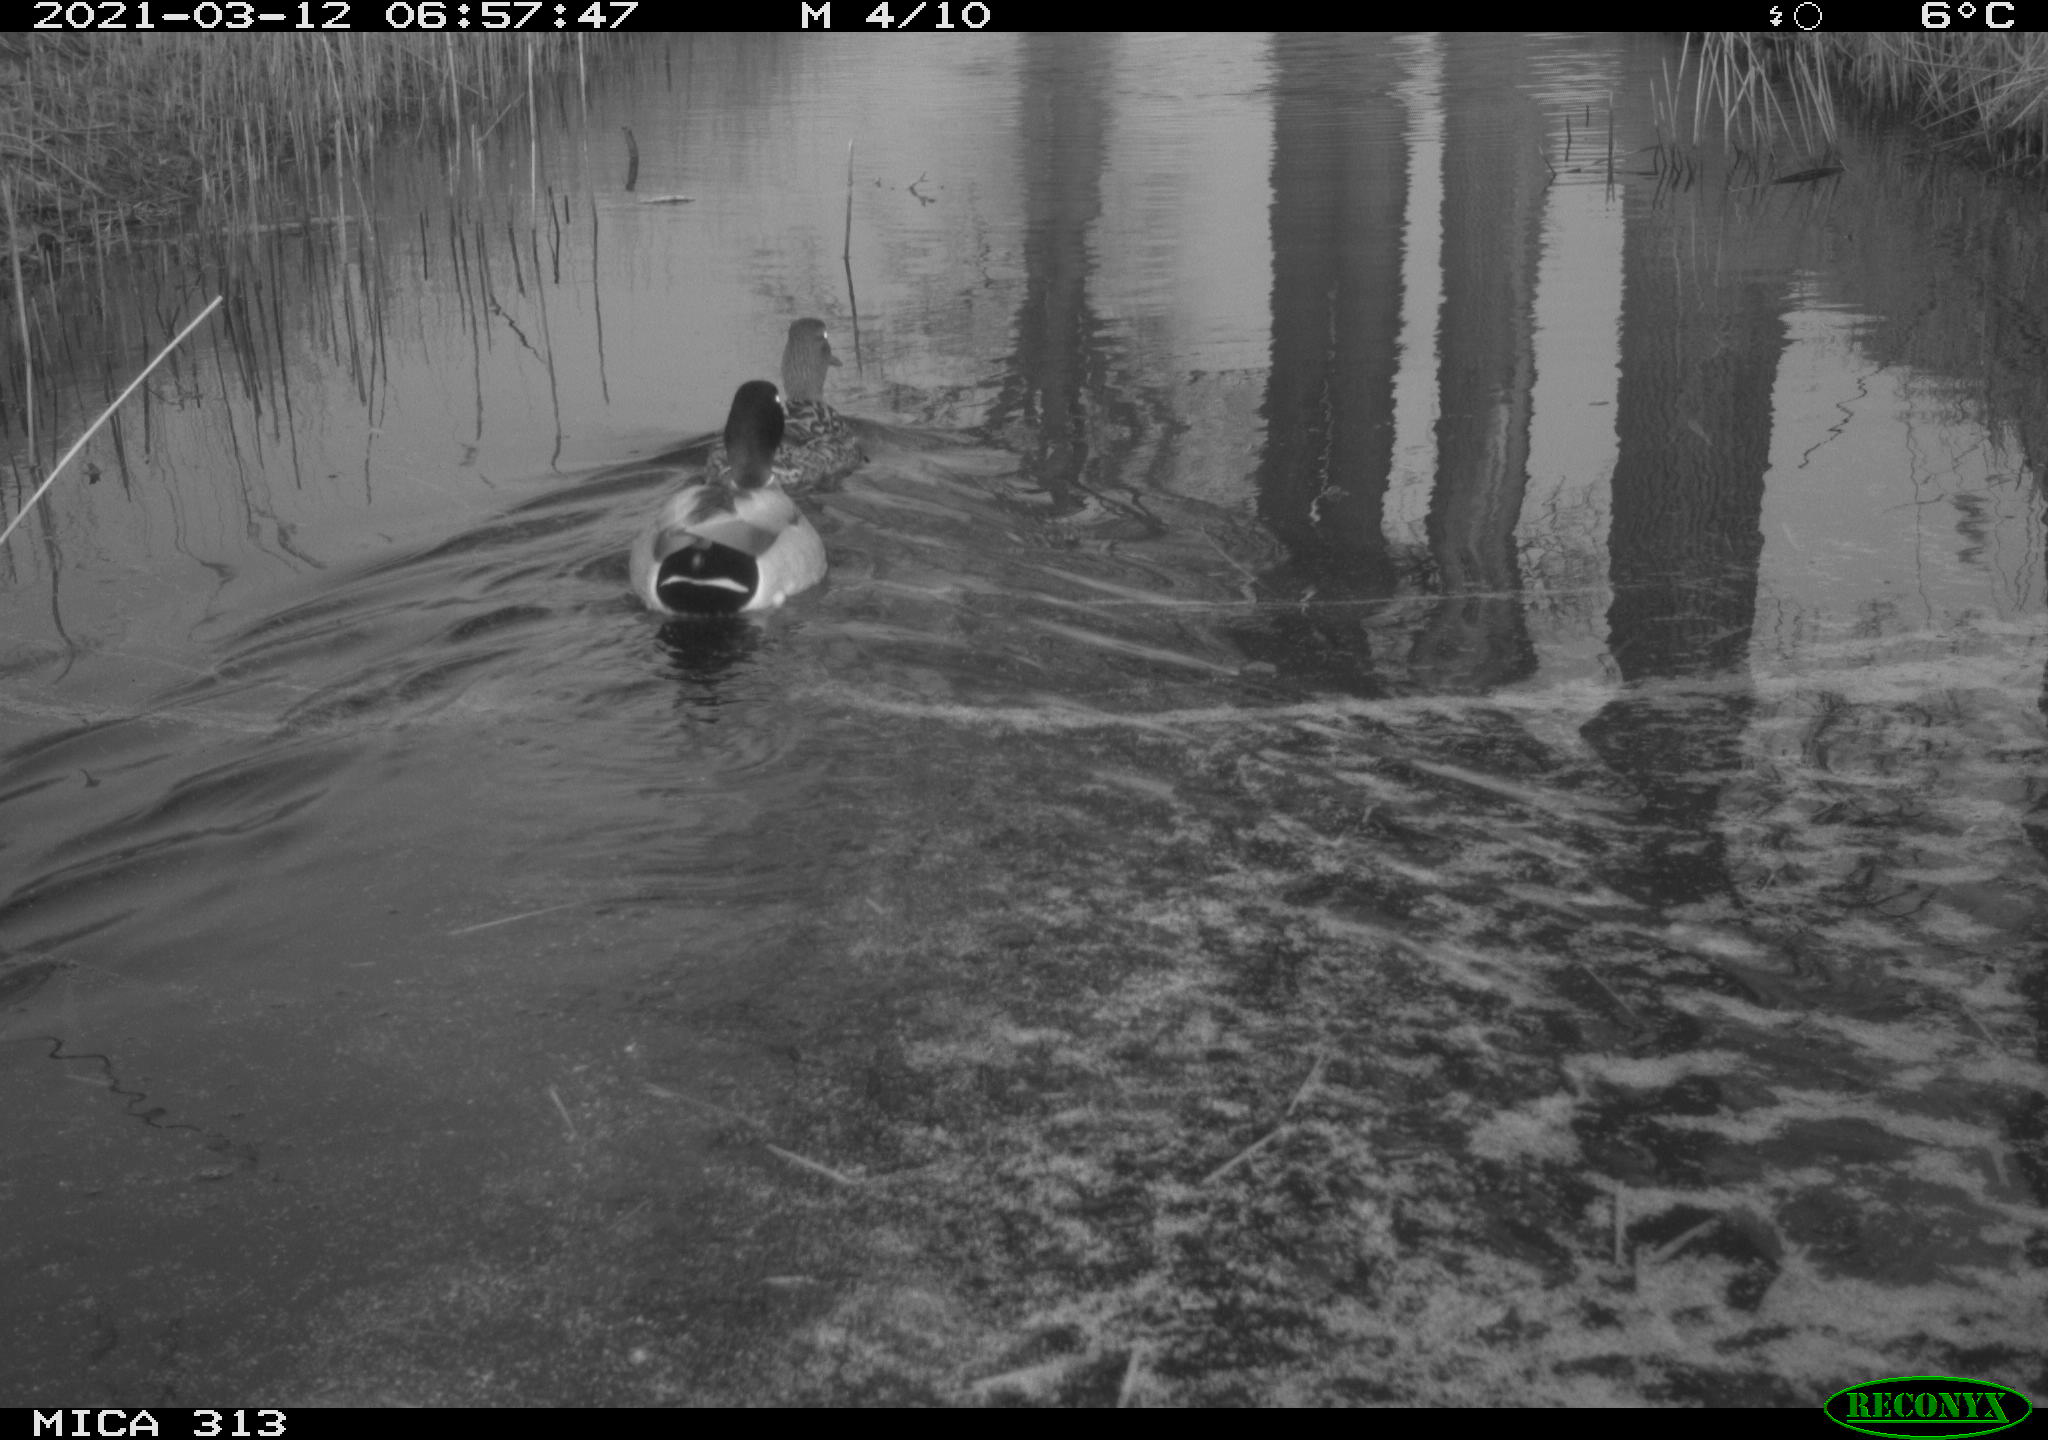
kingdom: Animalia
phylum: Chordata
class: Aves
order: Anseriformes
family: Anatidae
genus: Anas
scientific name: Anas platyrhynchos
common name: Mallard
